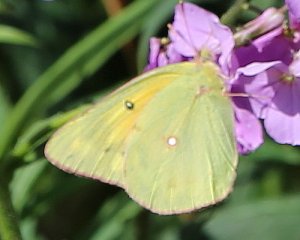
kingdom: Animalia
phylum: Arthropoda
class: Insecta
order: Lepidoptera
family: Pieridae
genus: Colias
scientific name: Colias eurytheme
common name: Orange Sulphur
